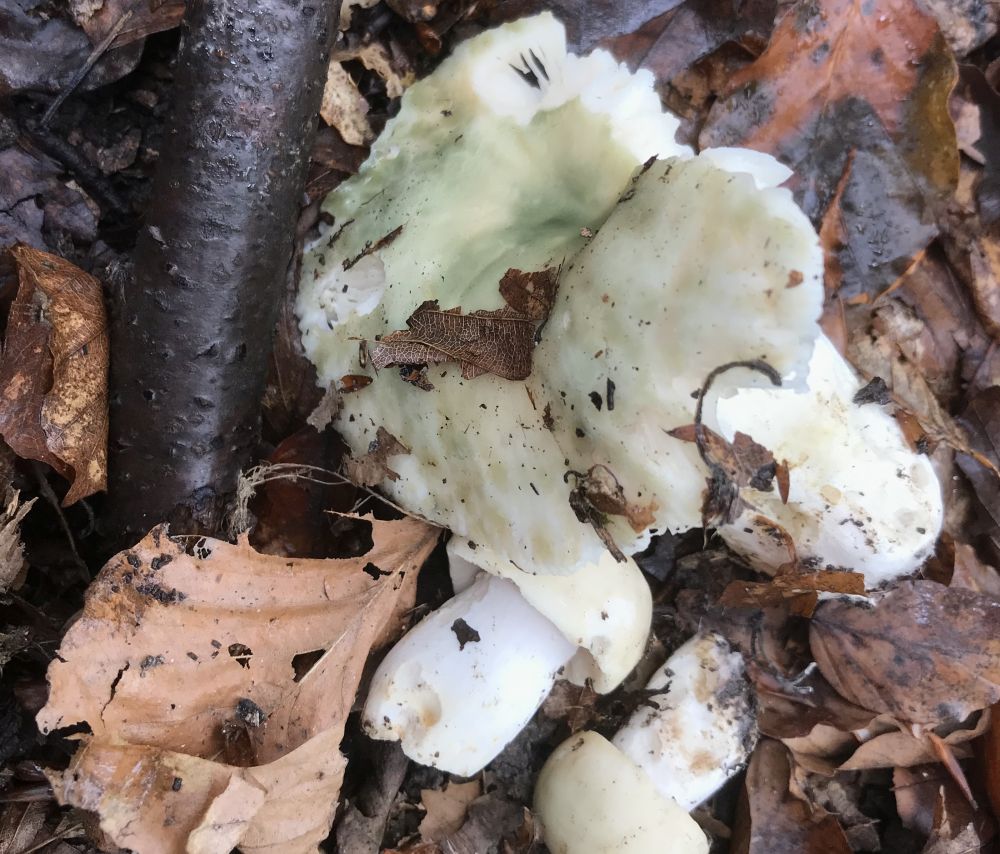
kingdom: Fungi
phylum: Basidiomycota
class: Agaricomycetes
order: Russulales
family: Russulaceae
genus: Russula
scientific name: Russula virescens
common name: spanskgrøn skørhat
